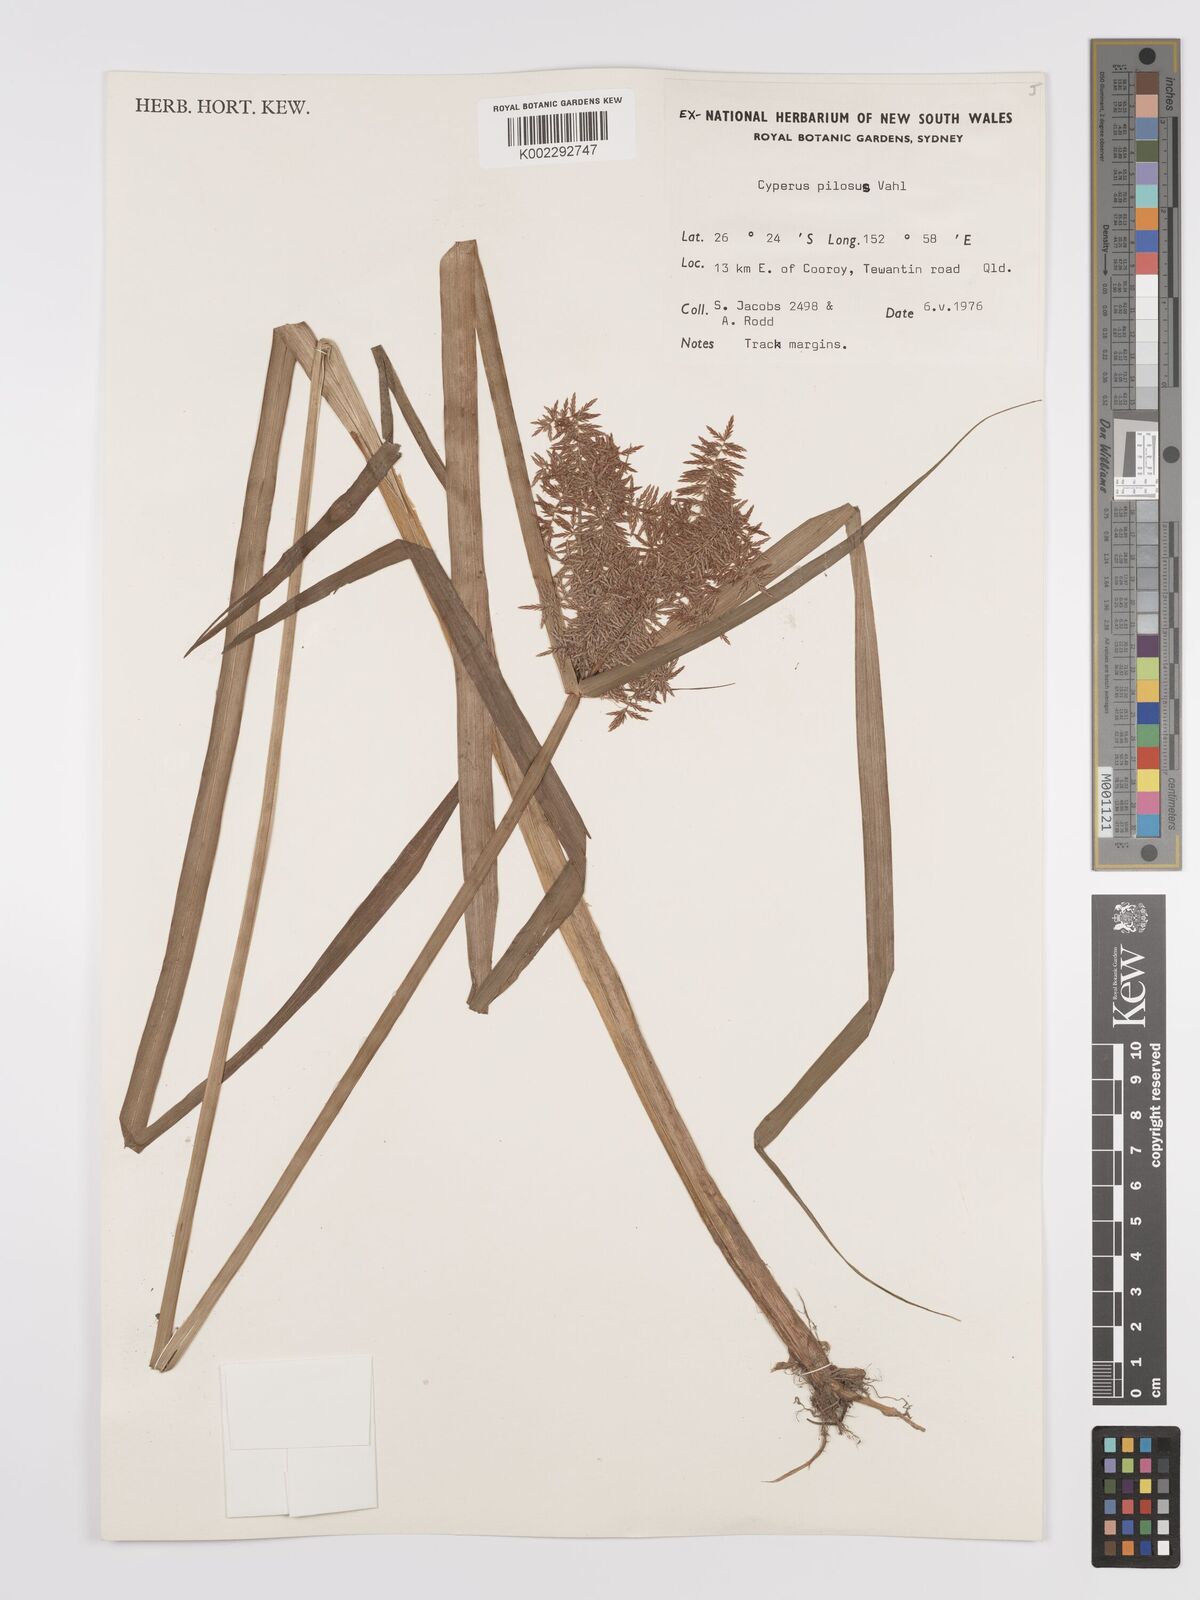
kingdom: Plantae
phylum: Tracheophyta
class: Liliopsida
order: Poales
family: Cyperaceae
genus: Cyperus
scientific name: Cyperus pilosus
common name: Fuzzy flatsedge
